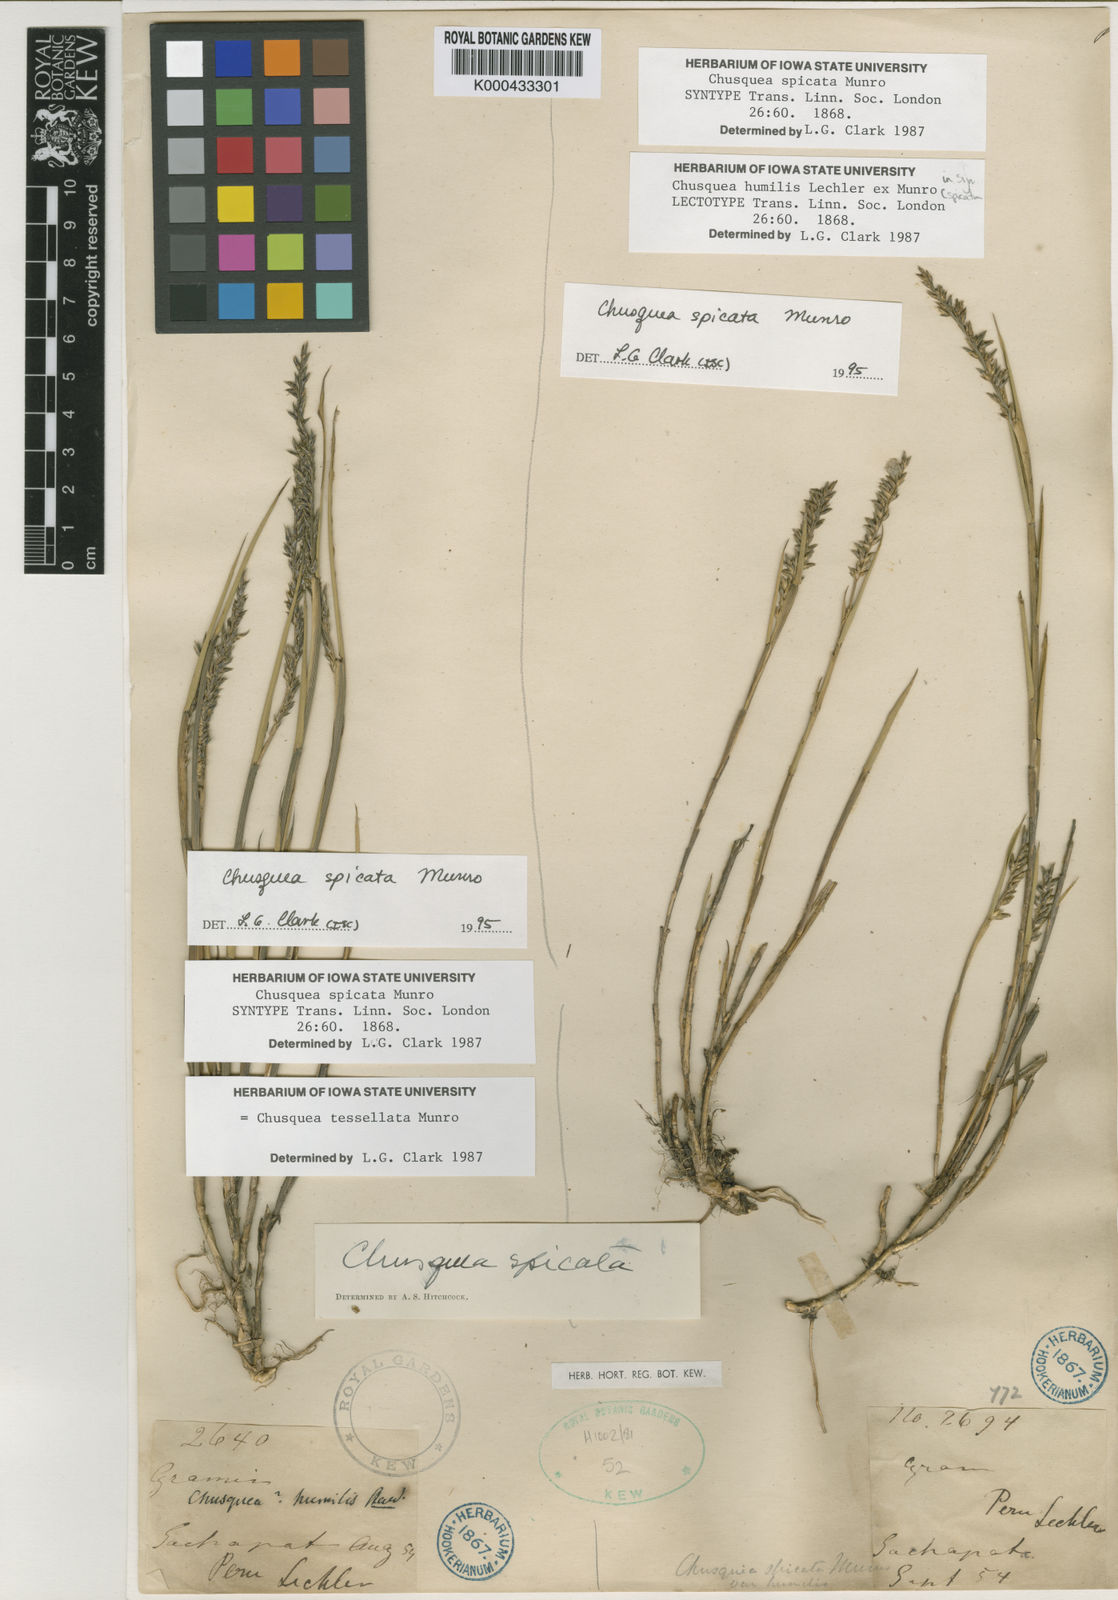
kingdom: Plantae
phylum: Tracheophyta
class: Liliopsida
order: Poales
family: Poaceae
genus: Chusquea
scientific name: Chusquea tessellata
